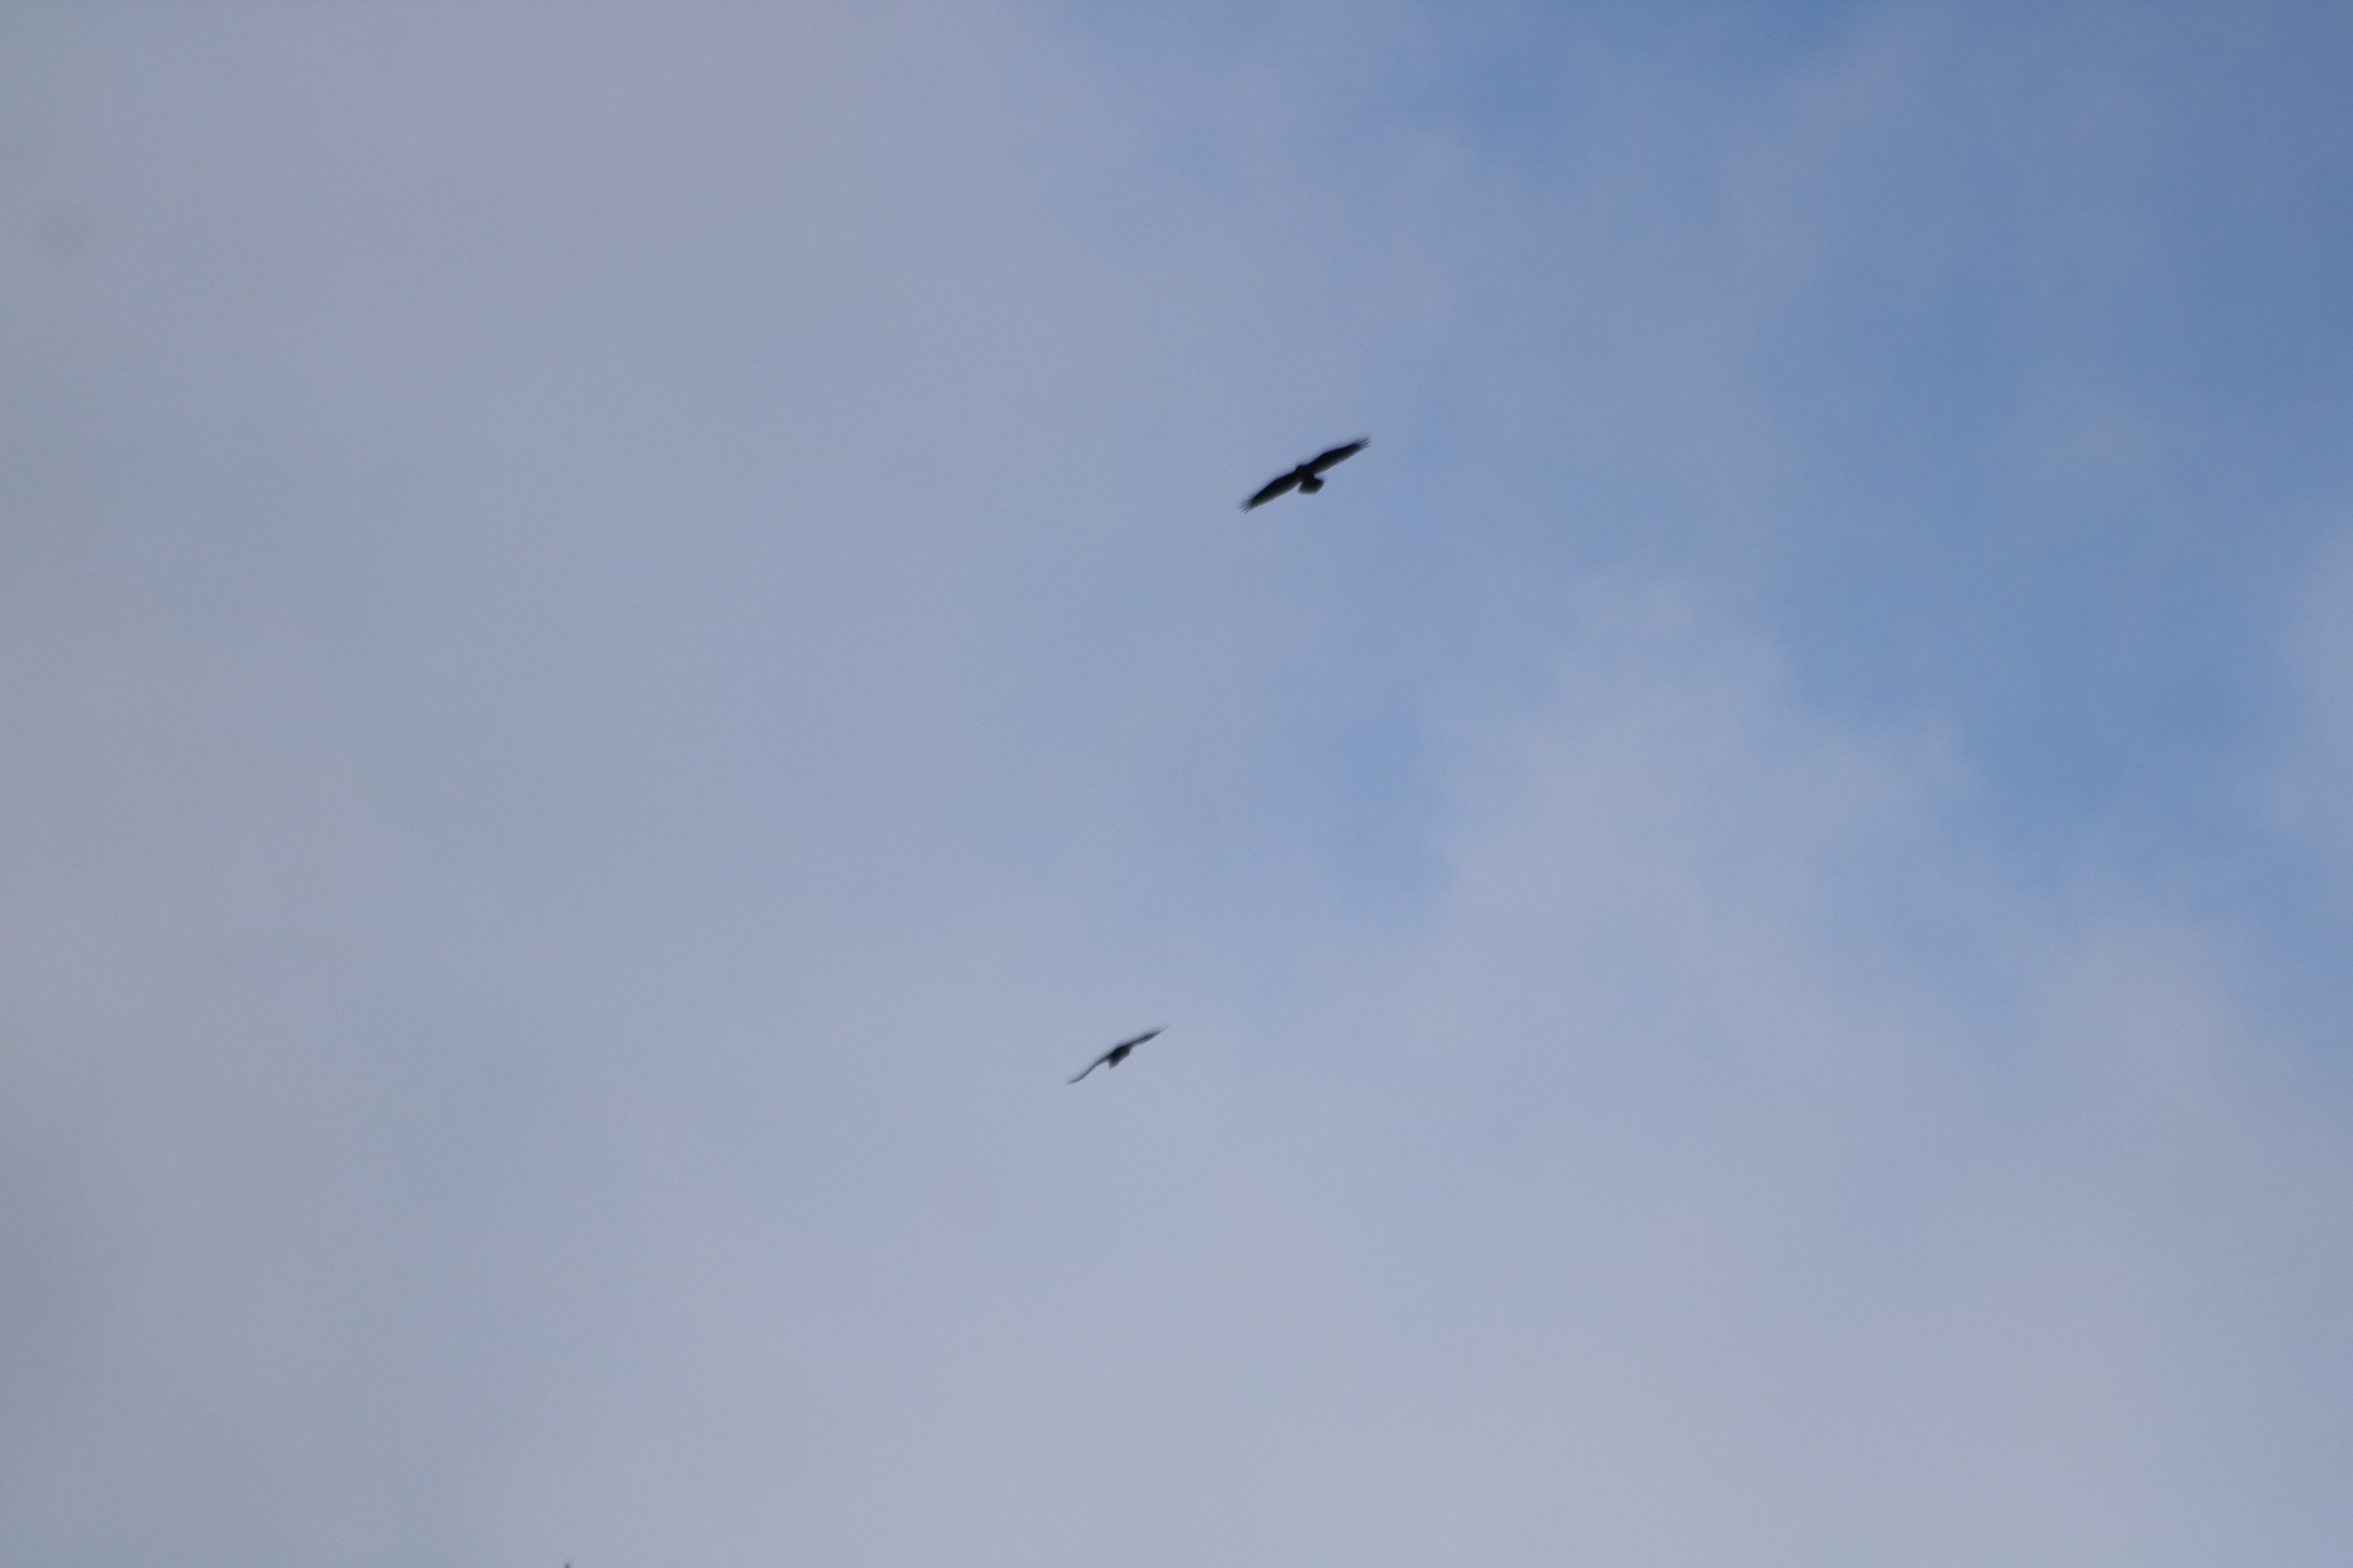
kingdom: Animalia
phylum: Chordata
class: Aves
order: Passeriformes
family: Corvidae
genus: Corvus
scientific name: Corvus corax
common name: Ravn
